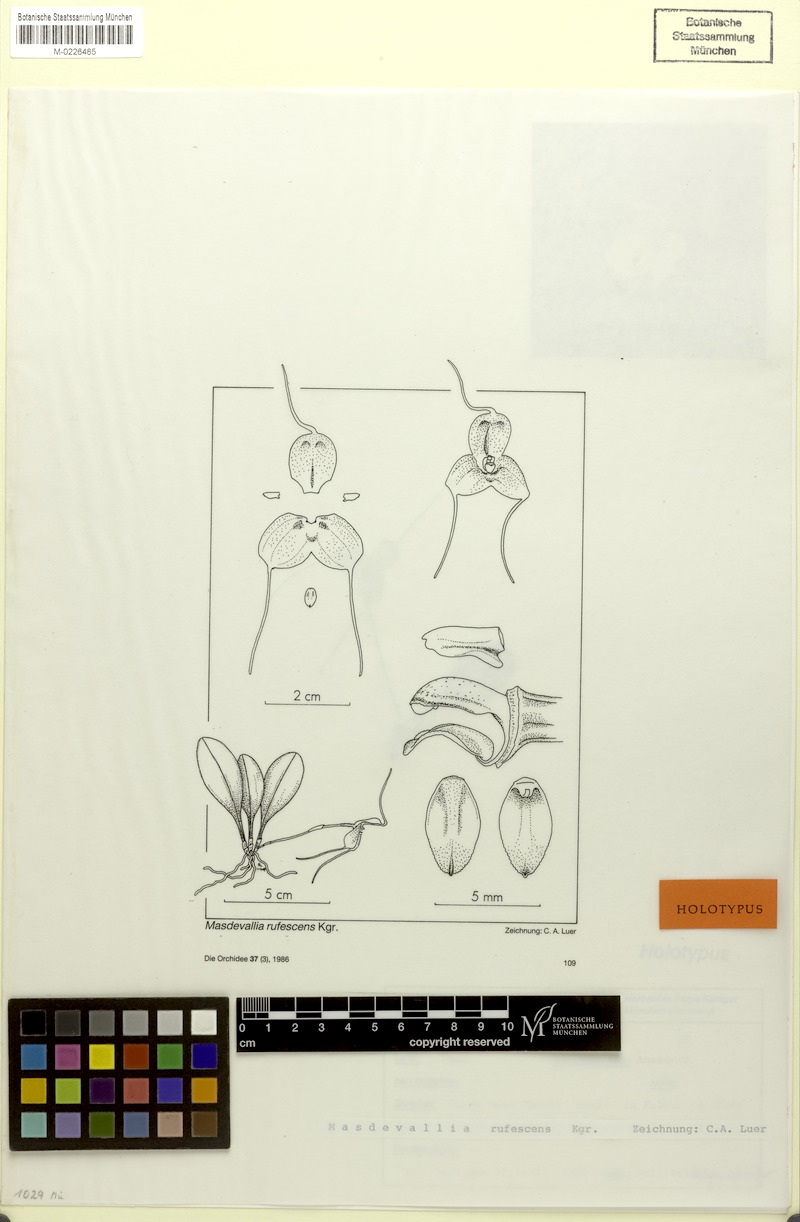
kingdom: Plantae
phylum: Tracheophyta
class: Liliopsida
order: Asparagales
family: Orchidaceae
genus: Masdevallia
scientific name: Masdevallia rufescens
